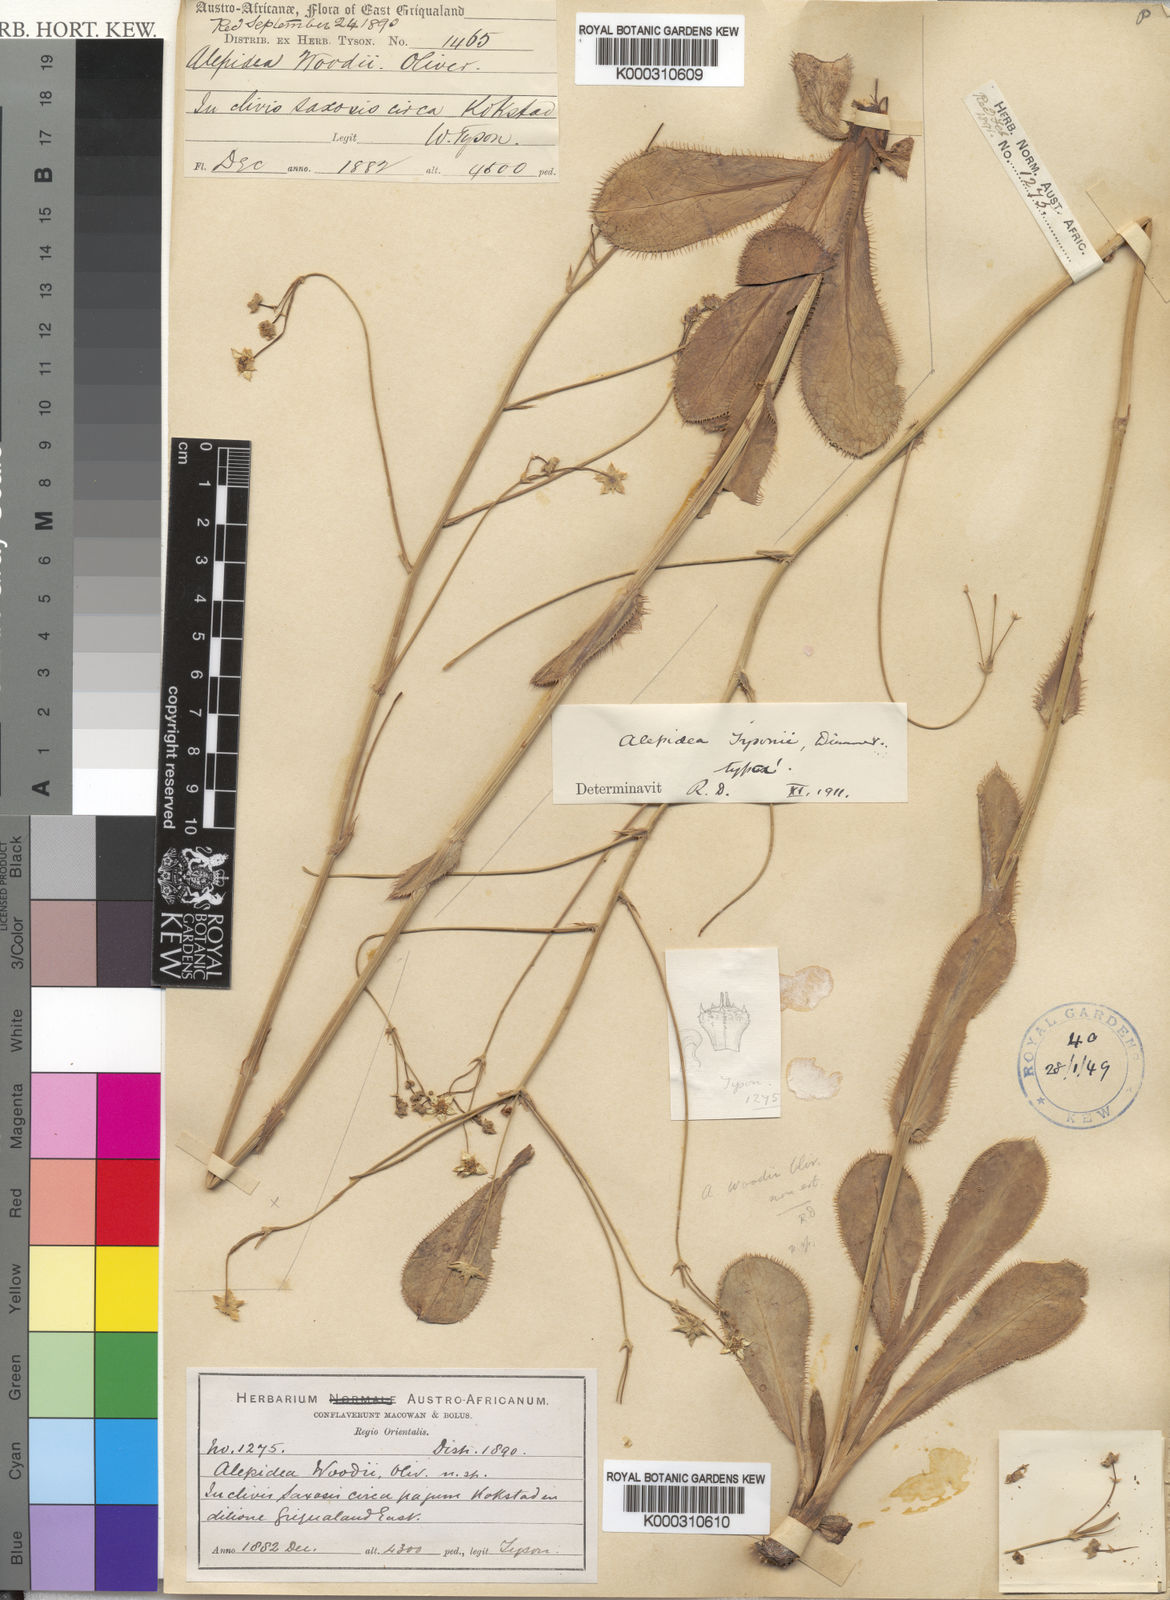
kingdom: Plantae
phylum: Tracheophyta
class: Magnoliopsida
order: Apiales
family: Apiaceae
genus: Alepidea
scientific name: Alepidea woodii
